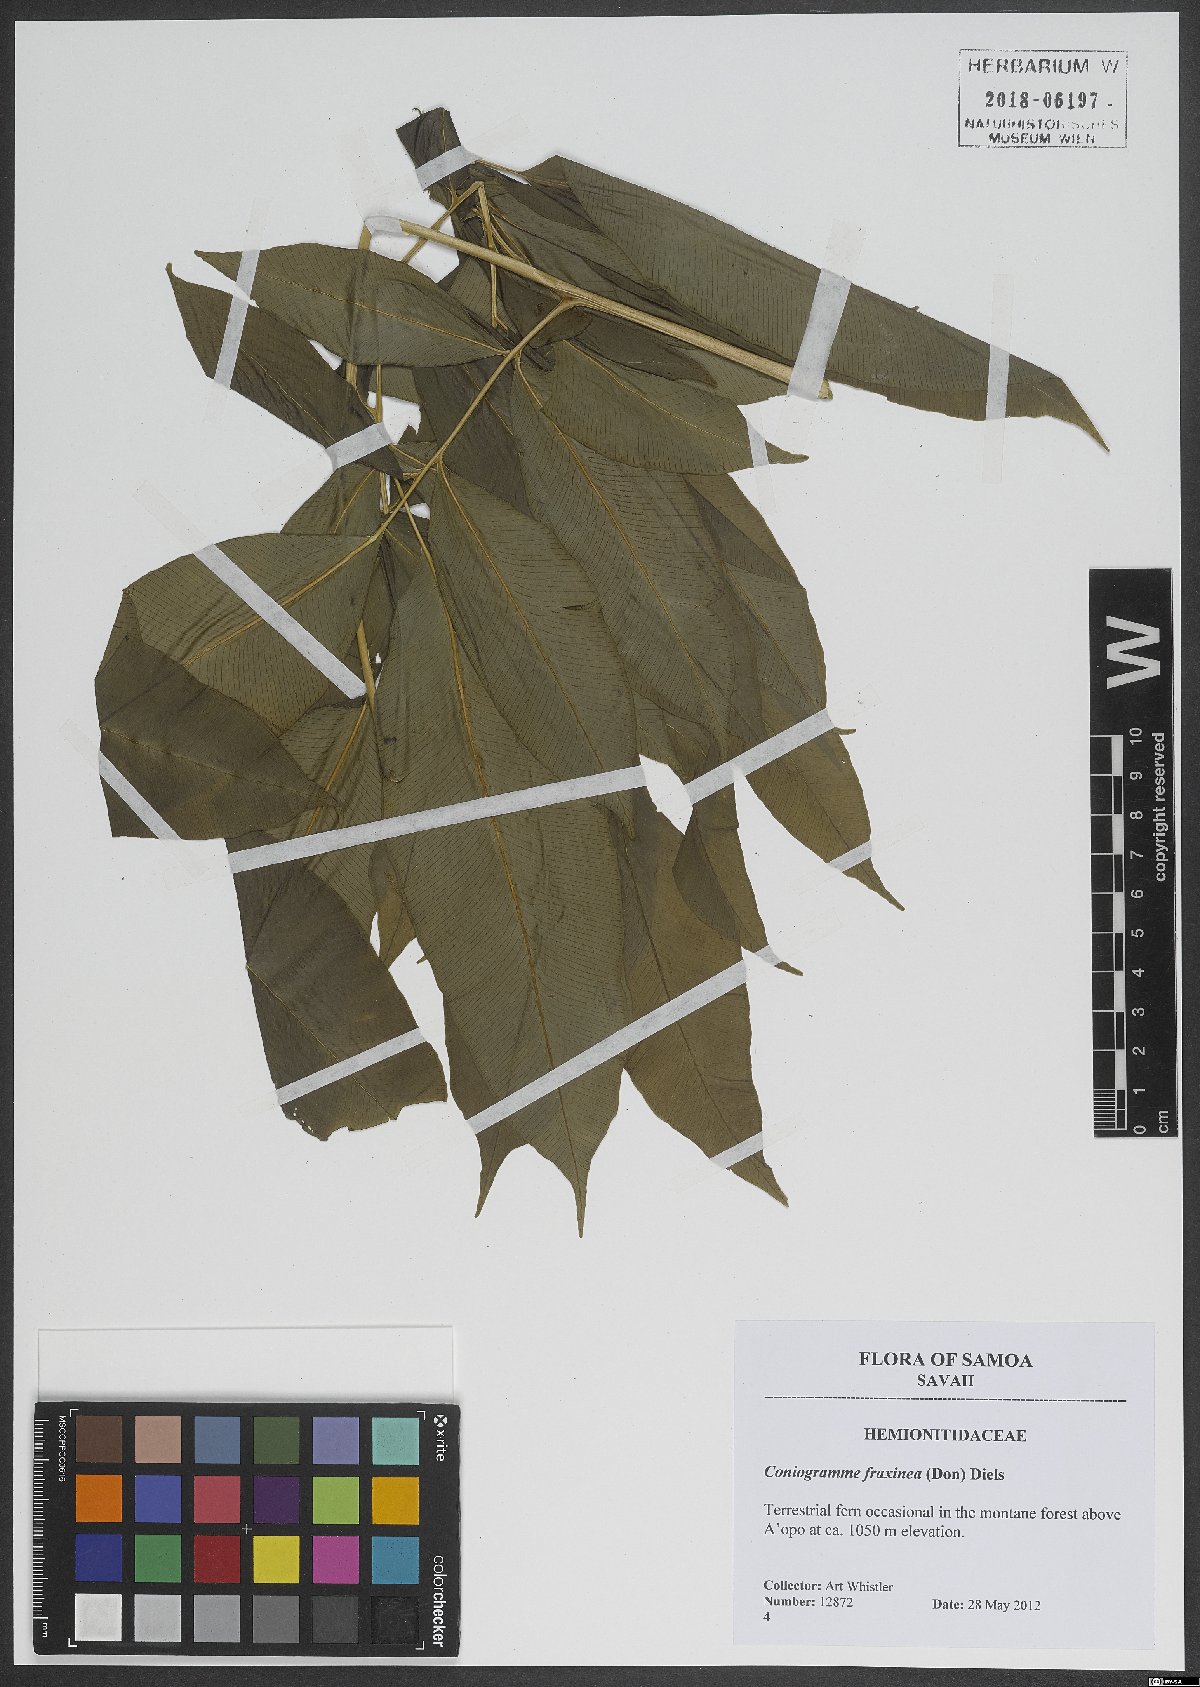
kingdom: Plantae
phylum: Tracheophyta
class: Polypodiopsida
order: Polypodiales
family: Pteridaceae
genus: Coniogramme
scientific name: Coniogramme fraxinea
